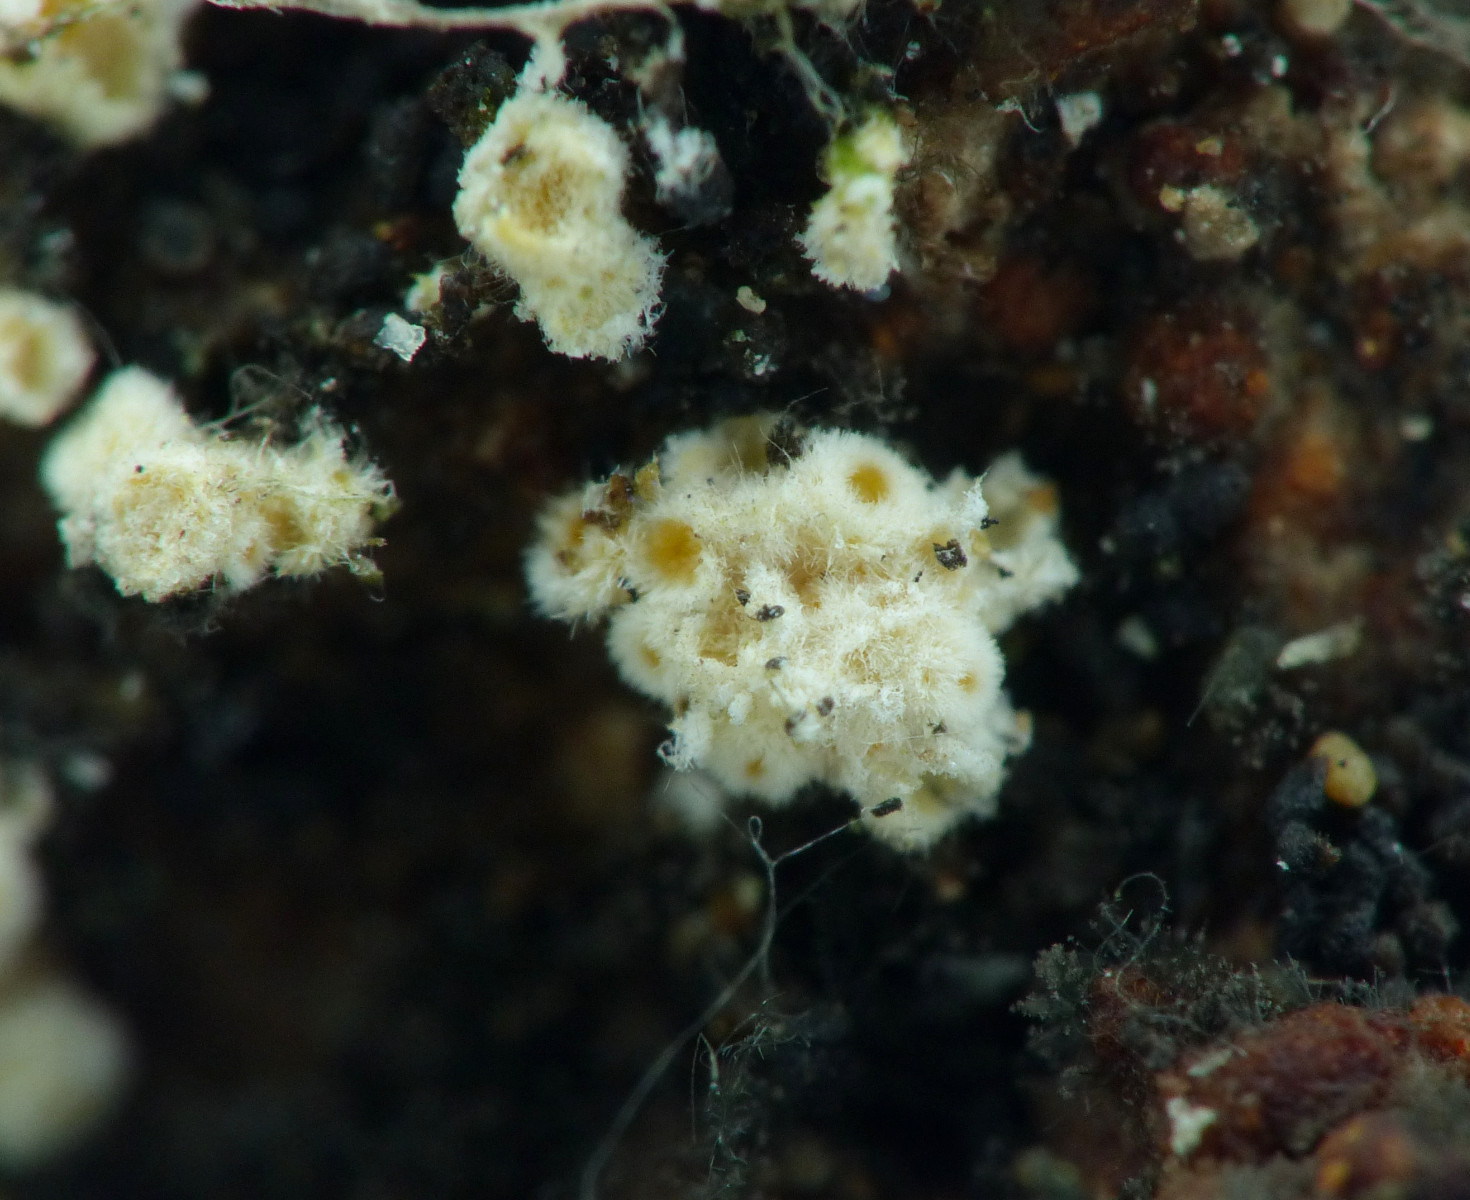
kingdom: Fungi
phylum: Ascomycota
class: Leotiomycetes
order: Helotiales
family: Lachnaceae
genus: Lachnellula
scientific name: Lachnellula calycina
